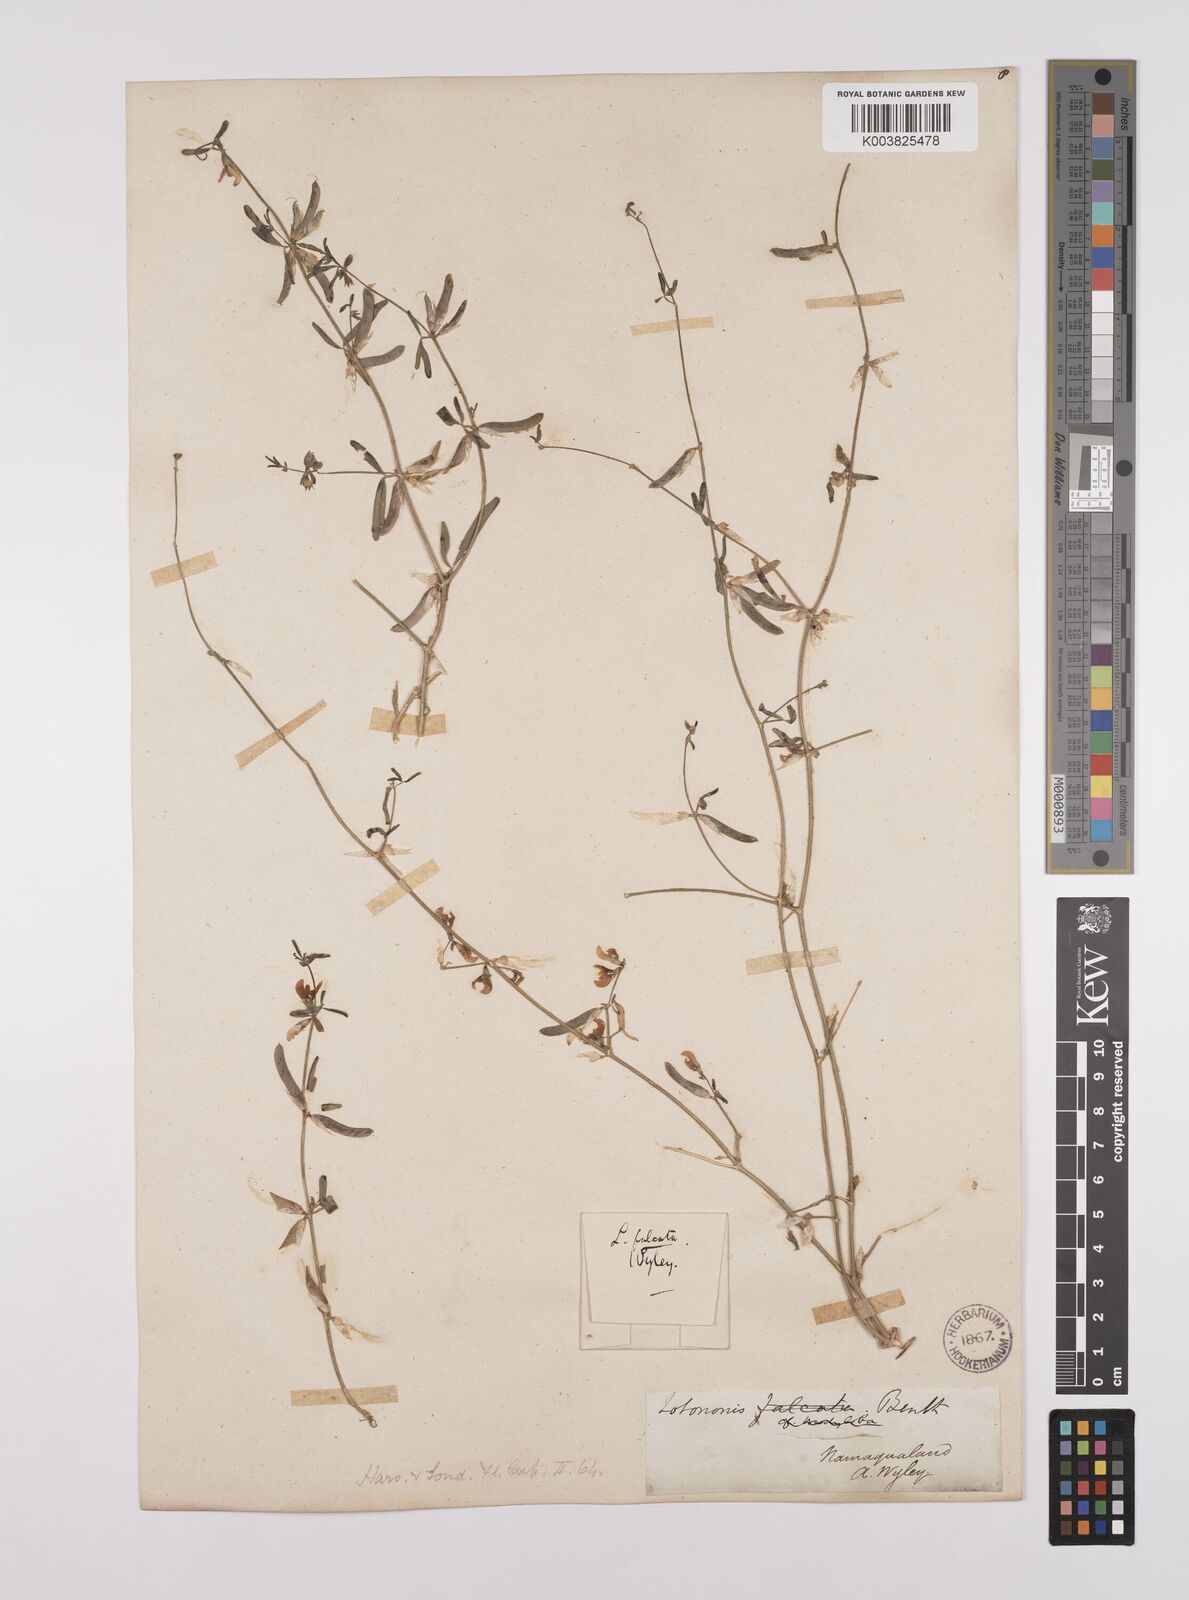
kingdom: Plantae
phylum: Tracheophyta
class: Magnoliopsida
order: Fabales
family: Fabaceae
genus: Lotononis
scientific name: Lotononis falcata
